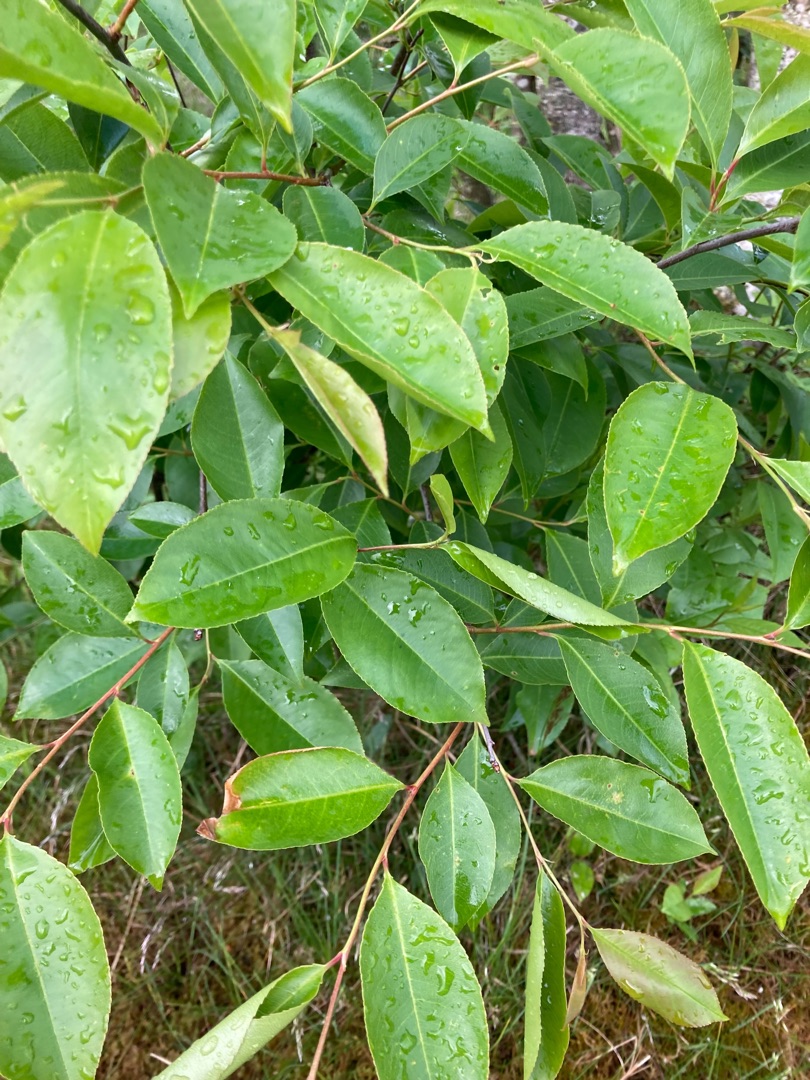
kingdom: Plantae
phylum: Tracheophyta
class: Magnoliopsida
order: Rosales
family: Rosaceae
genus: Prunus
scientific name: Prunus serotina
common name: Glansbladet hæg
